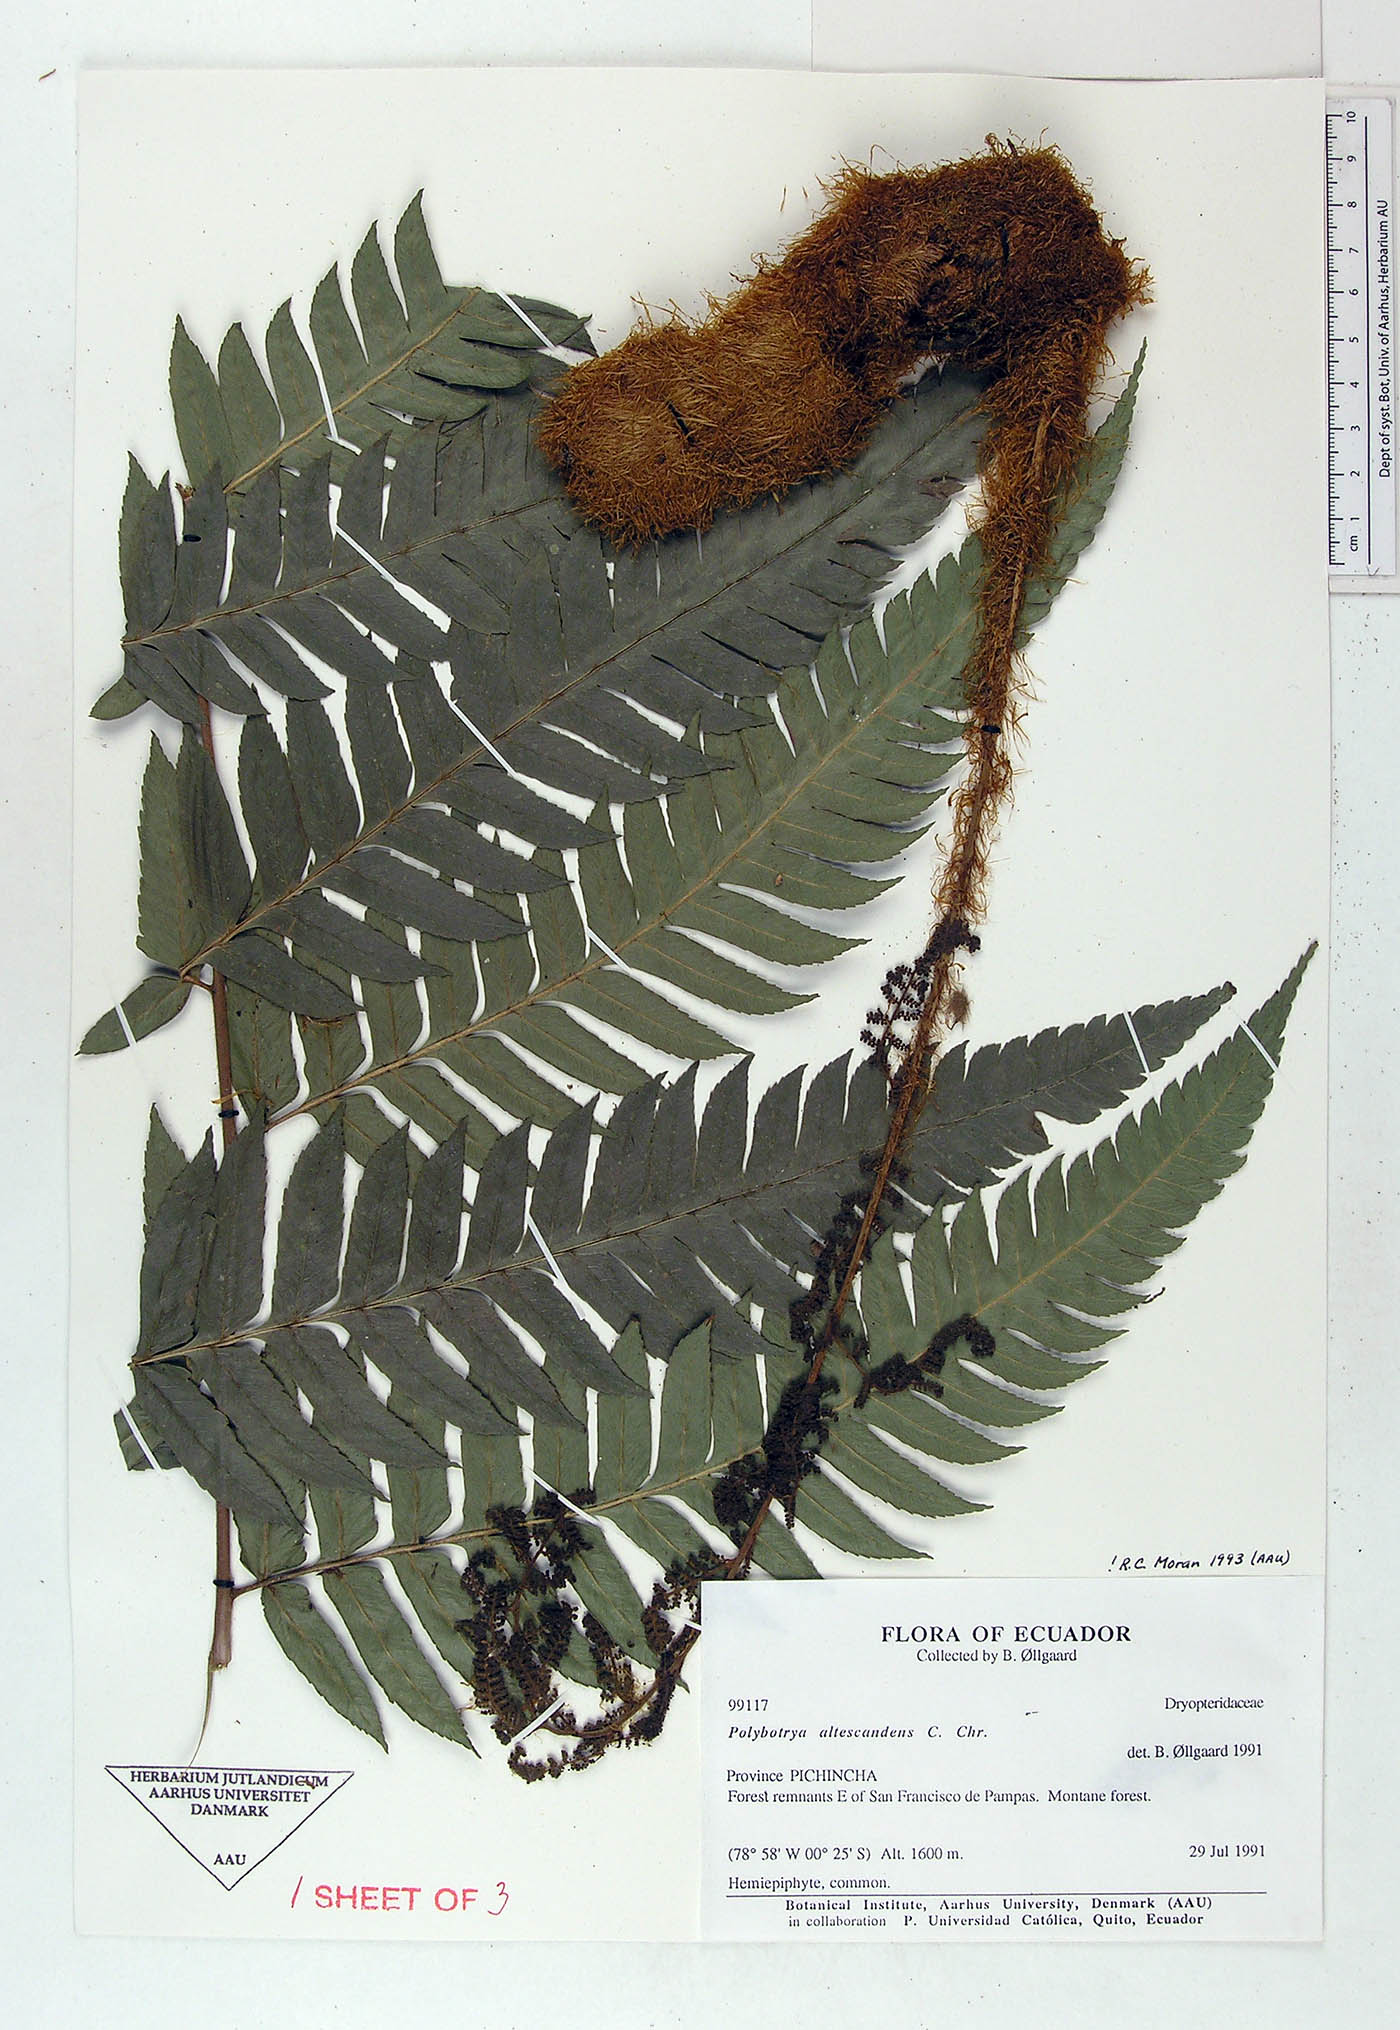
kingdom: Plantae
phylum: Tracheophyta
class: Polypodiopsida
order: Polypodiales
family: Dryopteridaceae
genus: Polybotrya
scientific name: Polybotrya altescandens
